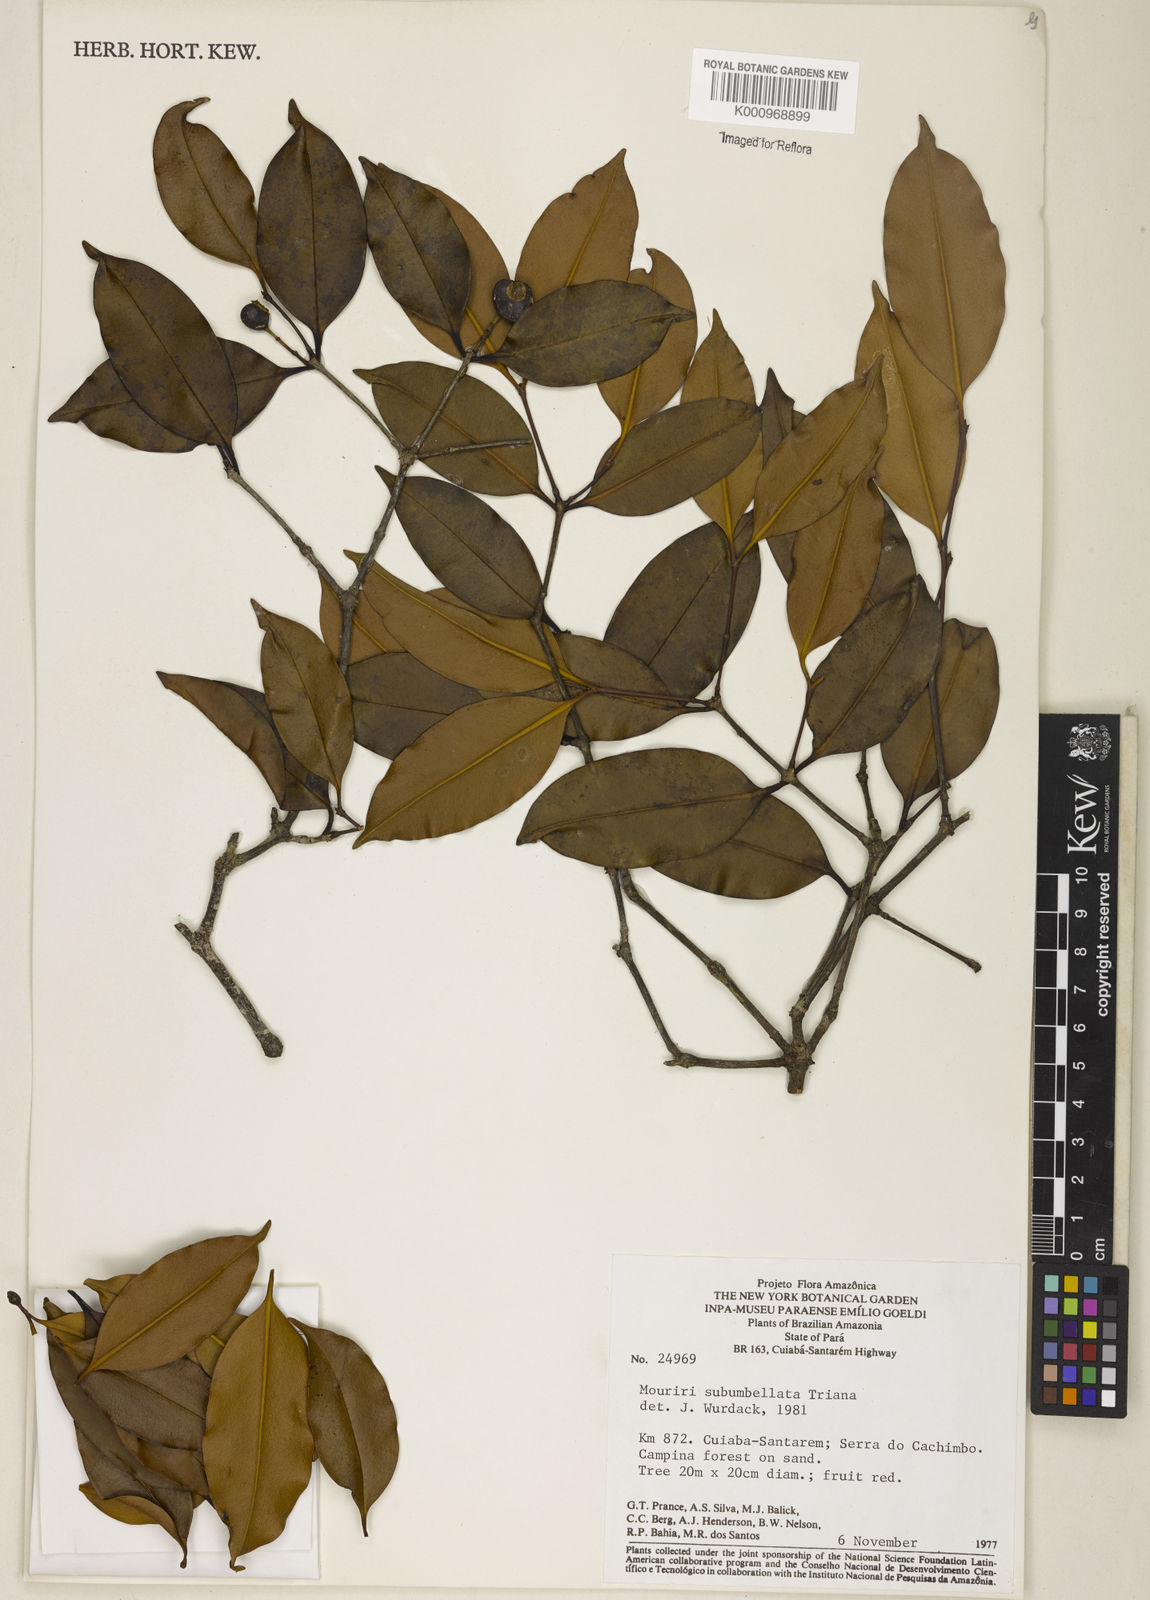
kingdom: Plantae
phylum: Tracheophyta
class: Magnoliopsida
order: Myrtales
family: Melastomataceae
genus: Mouriri
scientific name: Mouriri subumbellata
